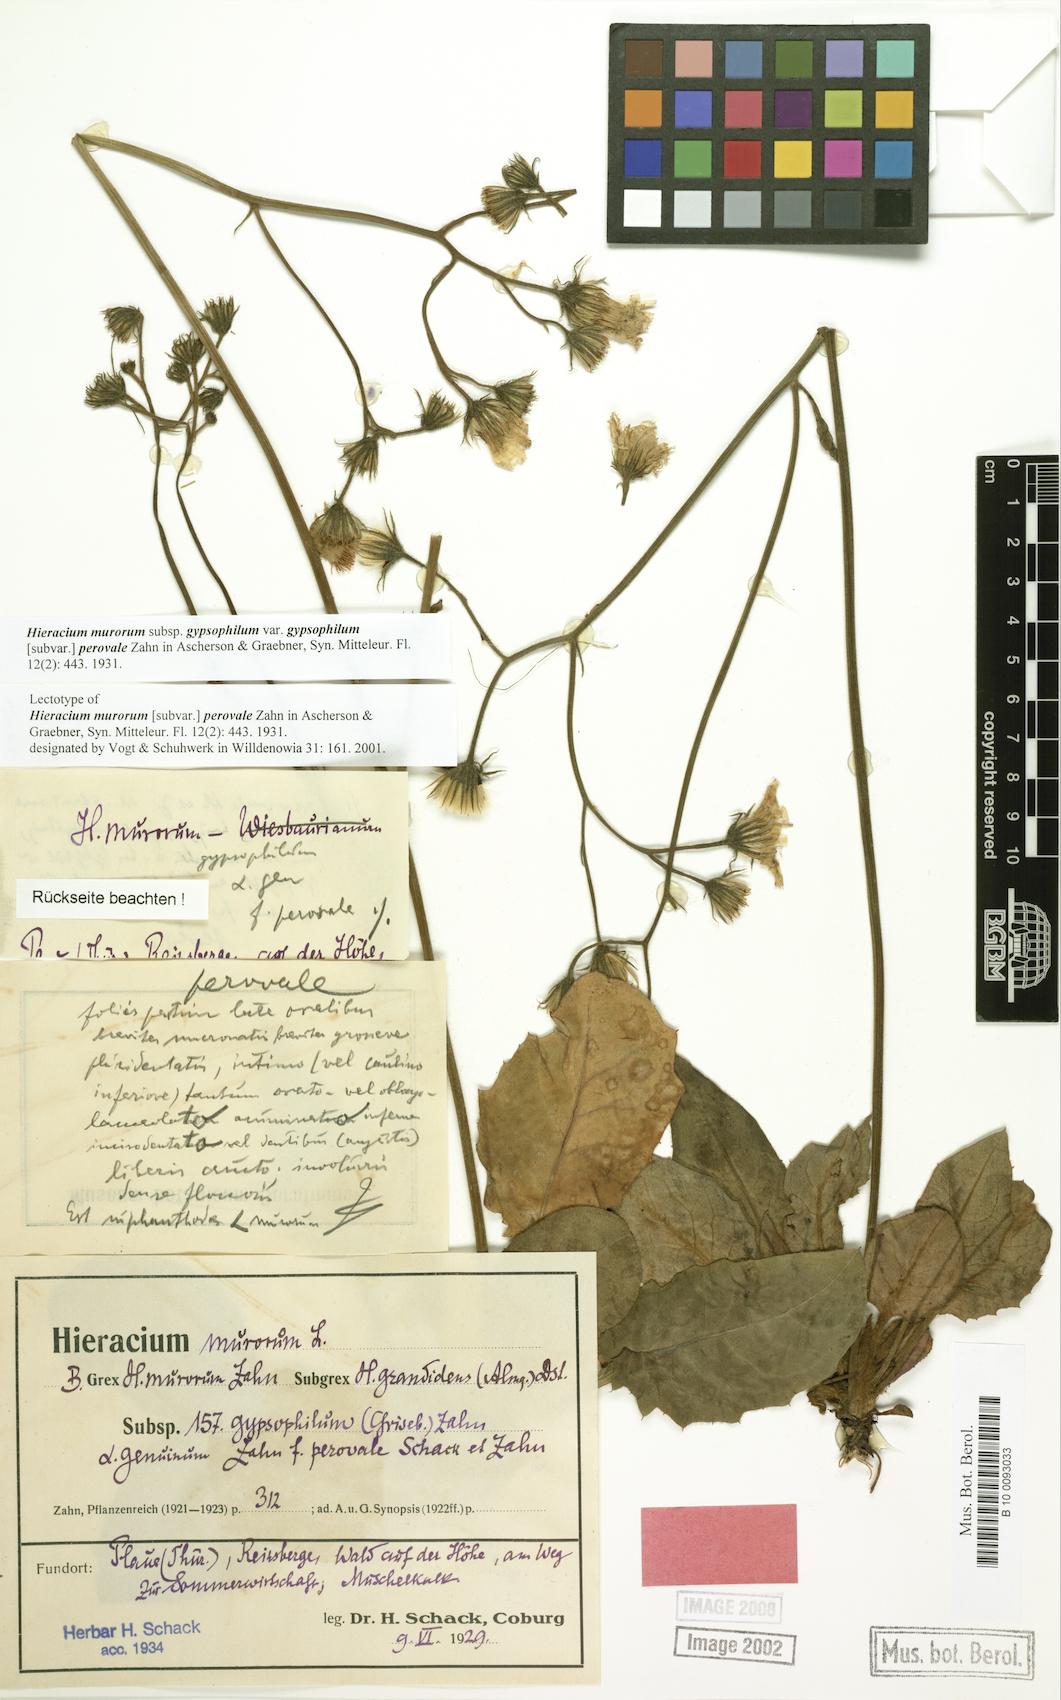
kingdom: Plantae
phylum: Tracheophyta
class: Magnoliopsida
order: Asterales
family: Asteraceae
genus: Hieracium
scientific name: Hieracium murorum
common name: Wall hawkweed
